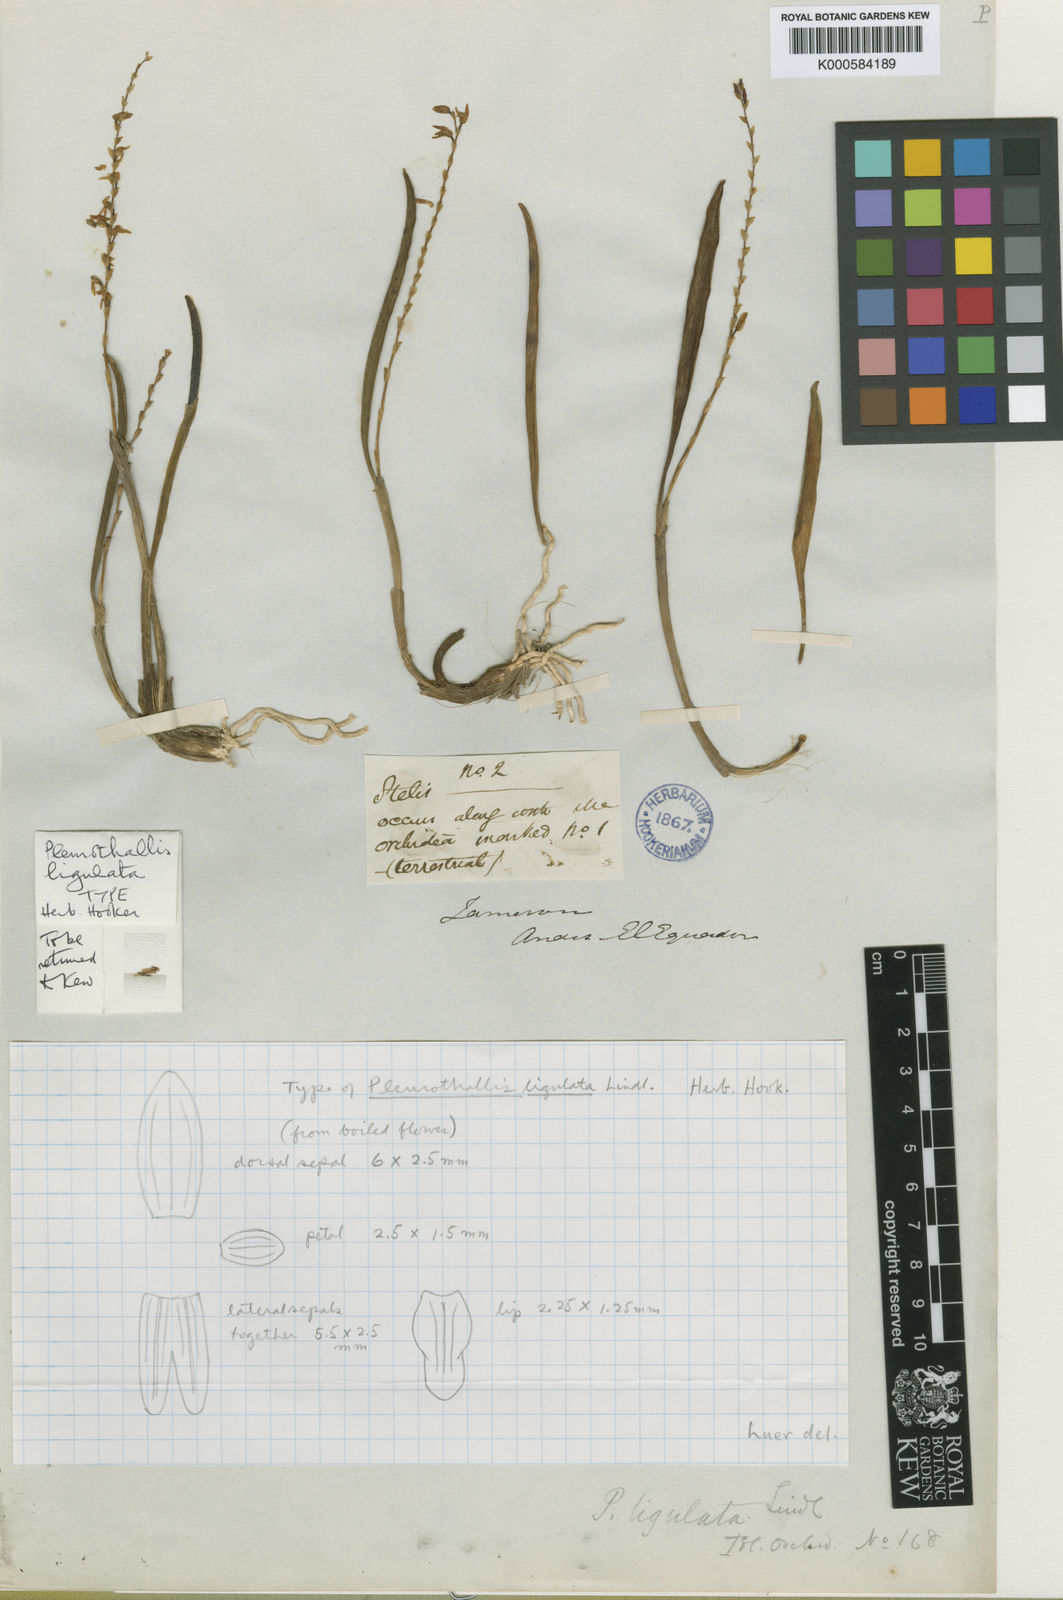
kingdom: Plantae
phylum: Tracheophyta
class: Liliopsida
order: Asparagales
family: Orchidaceae
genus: Stelis
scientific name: Stelis ligulata
